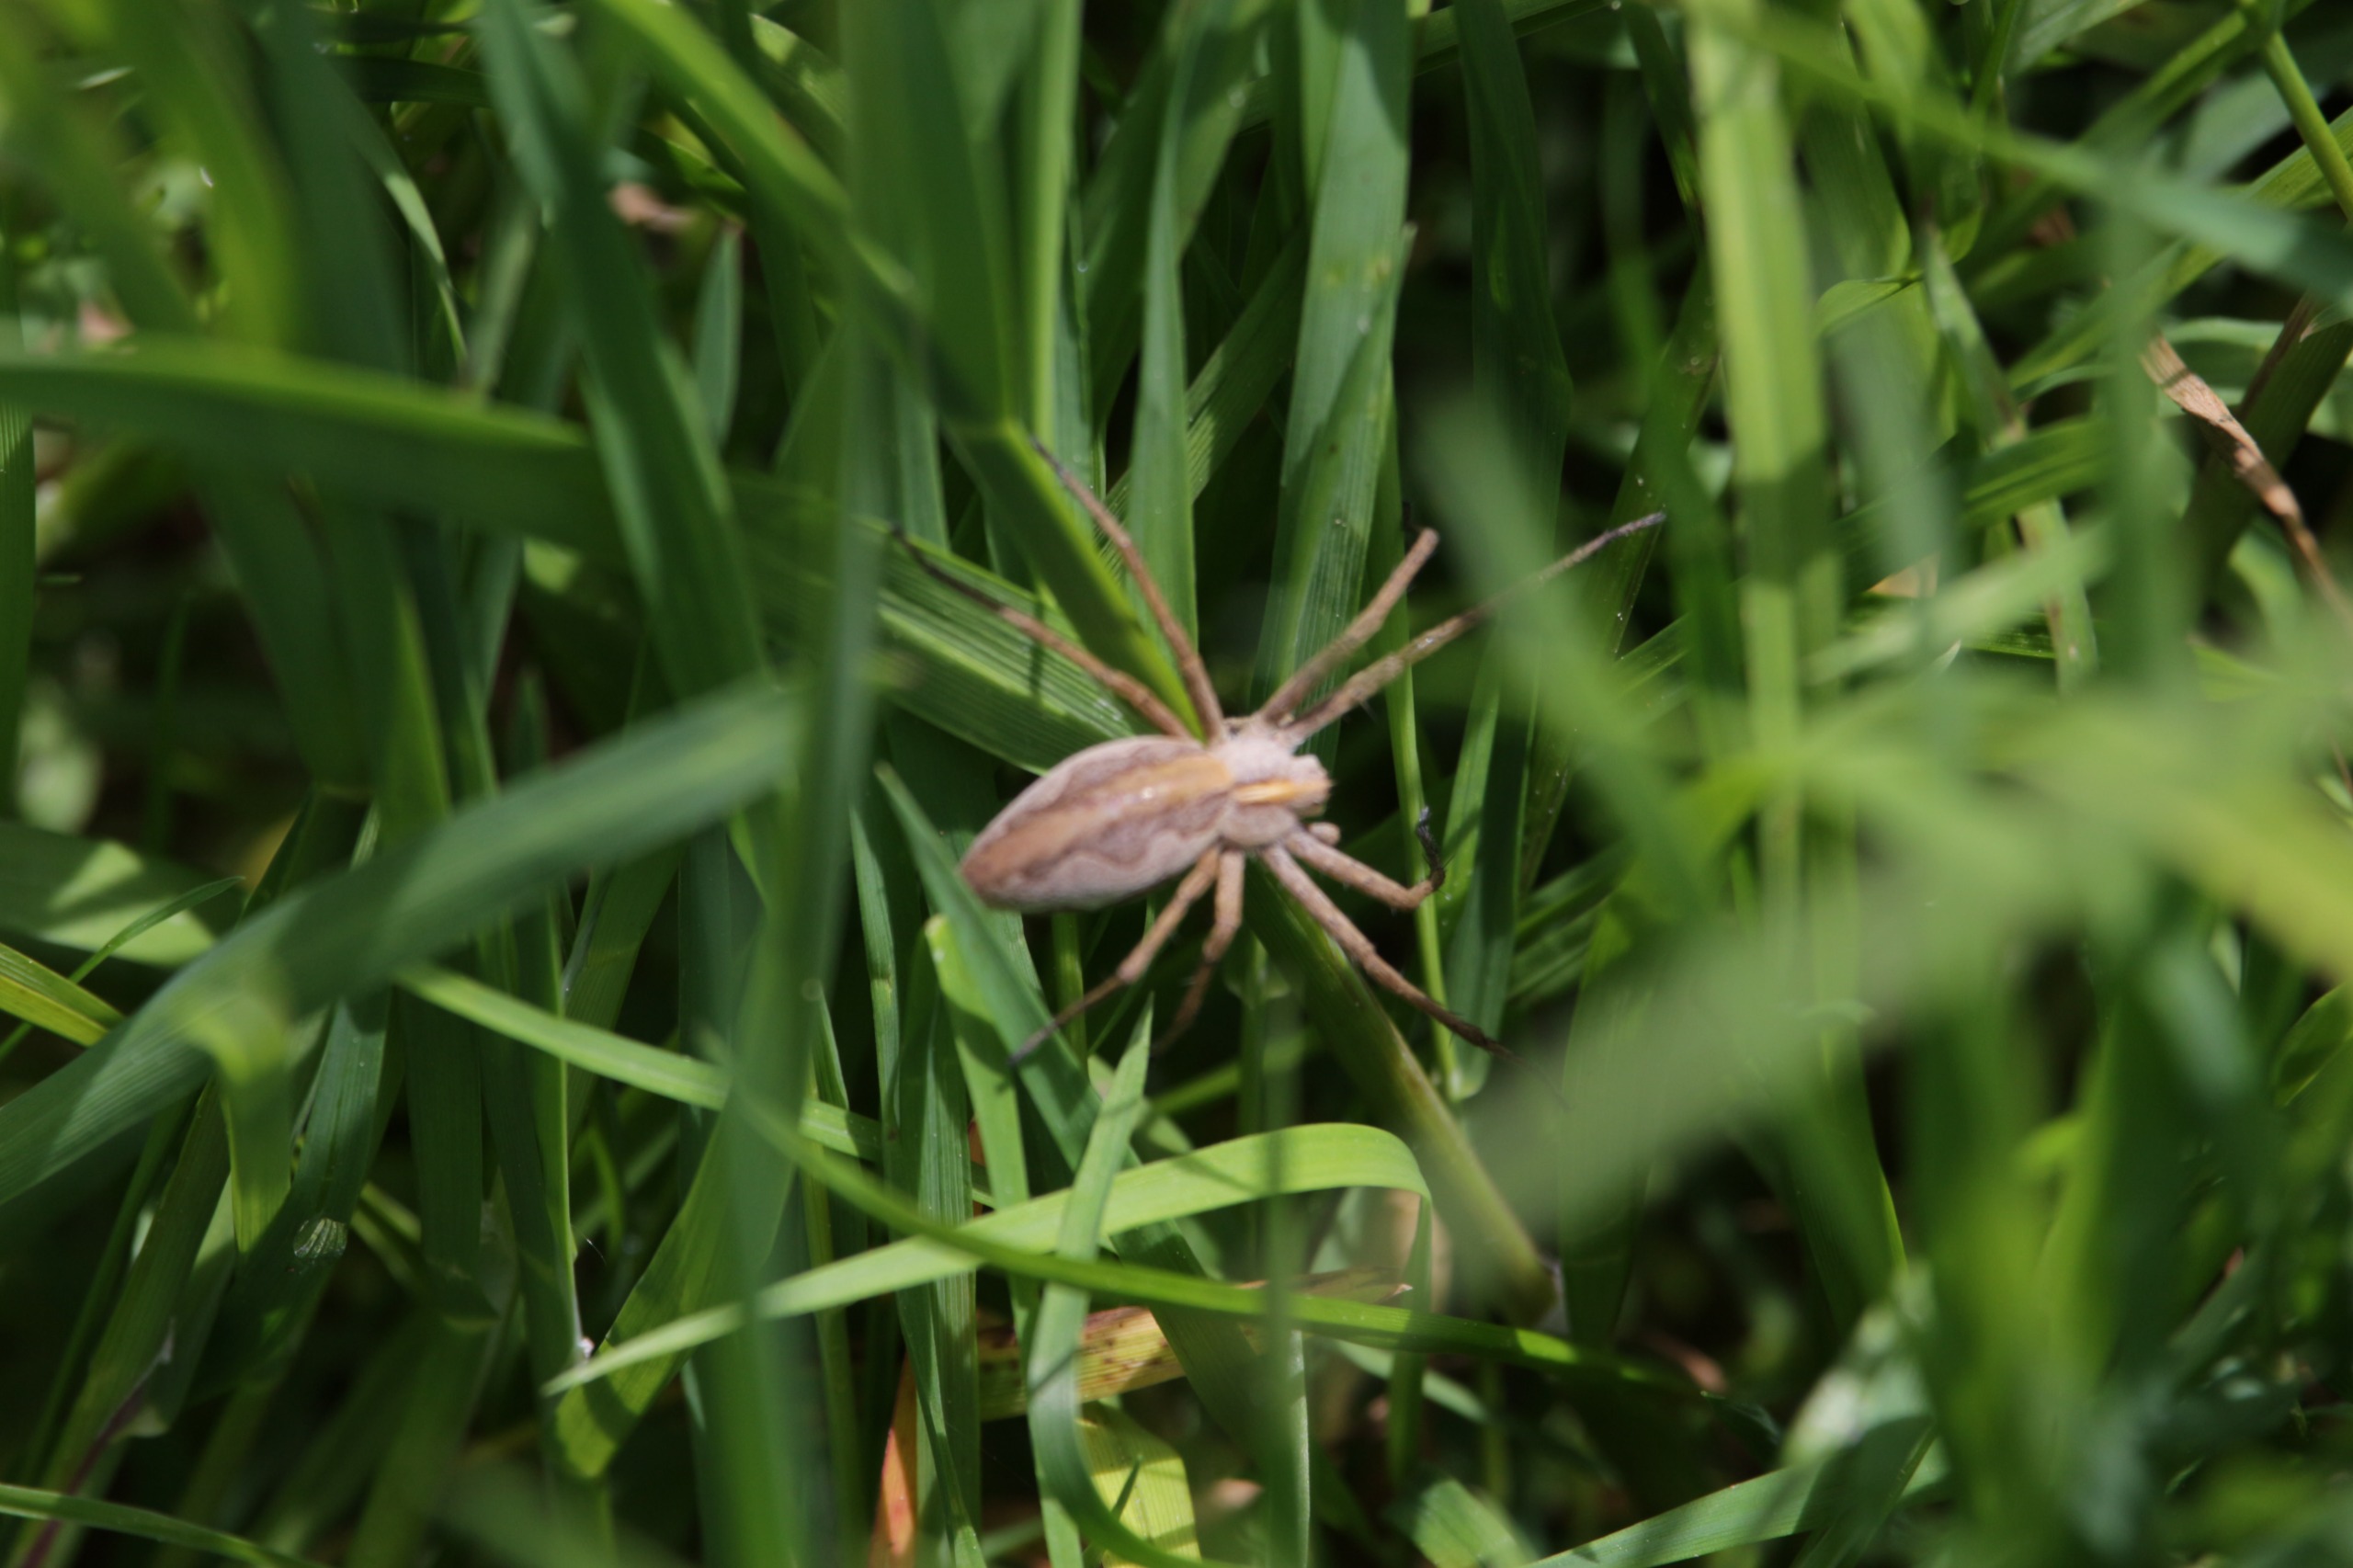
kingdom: Animalia
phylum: Arthropoda
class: Arachnida
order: Araneae
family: Pisauridae
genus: Pisaura
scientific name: Pisaura mirabilis
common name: Almindelig rovedderkop
